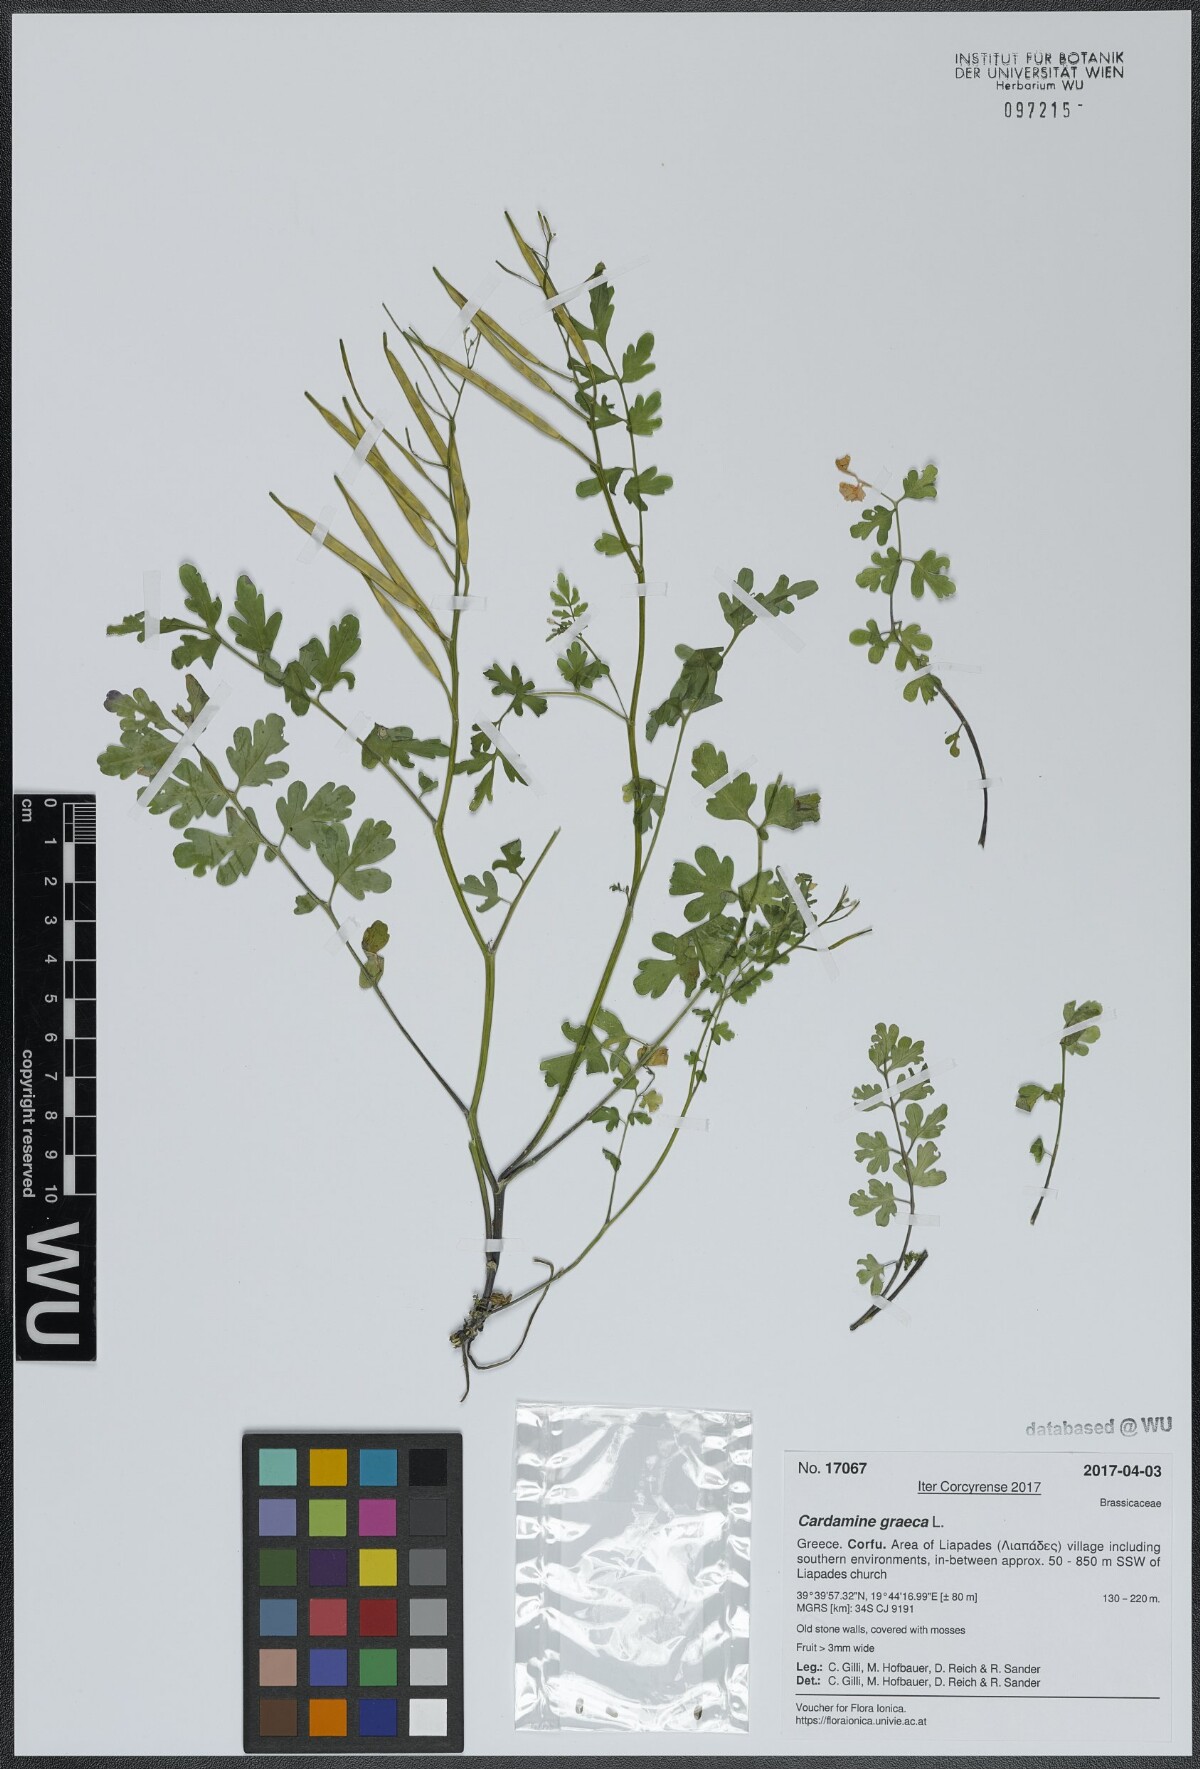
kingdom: Plantae
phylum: Tracheophyta
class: Magnoliopsida
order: Brassicales
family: Brassicaceae
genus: Cardamine
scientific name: Cardamine graeca
